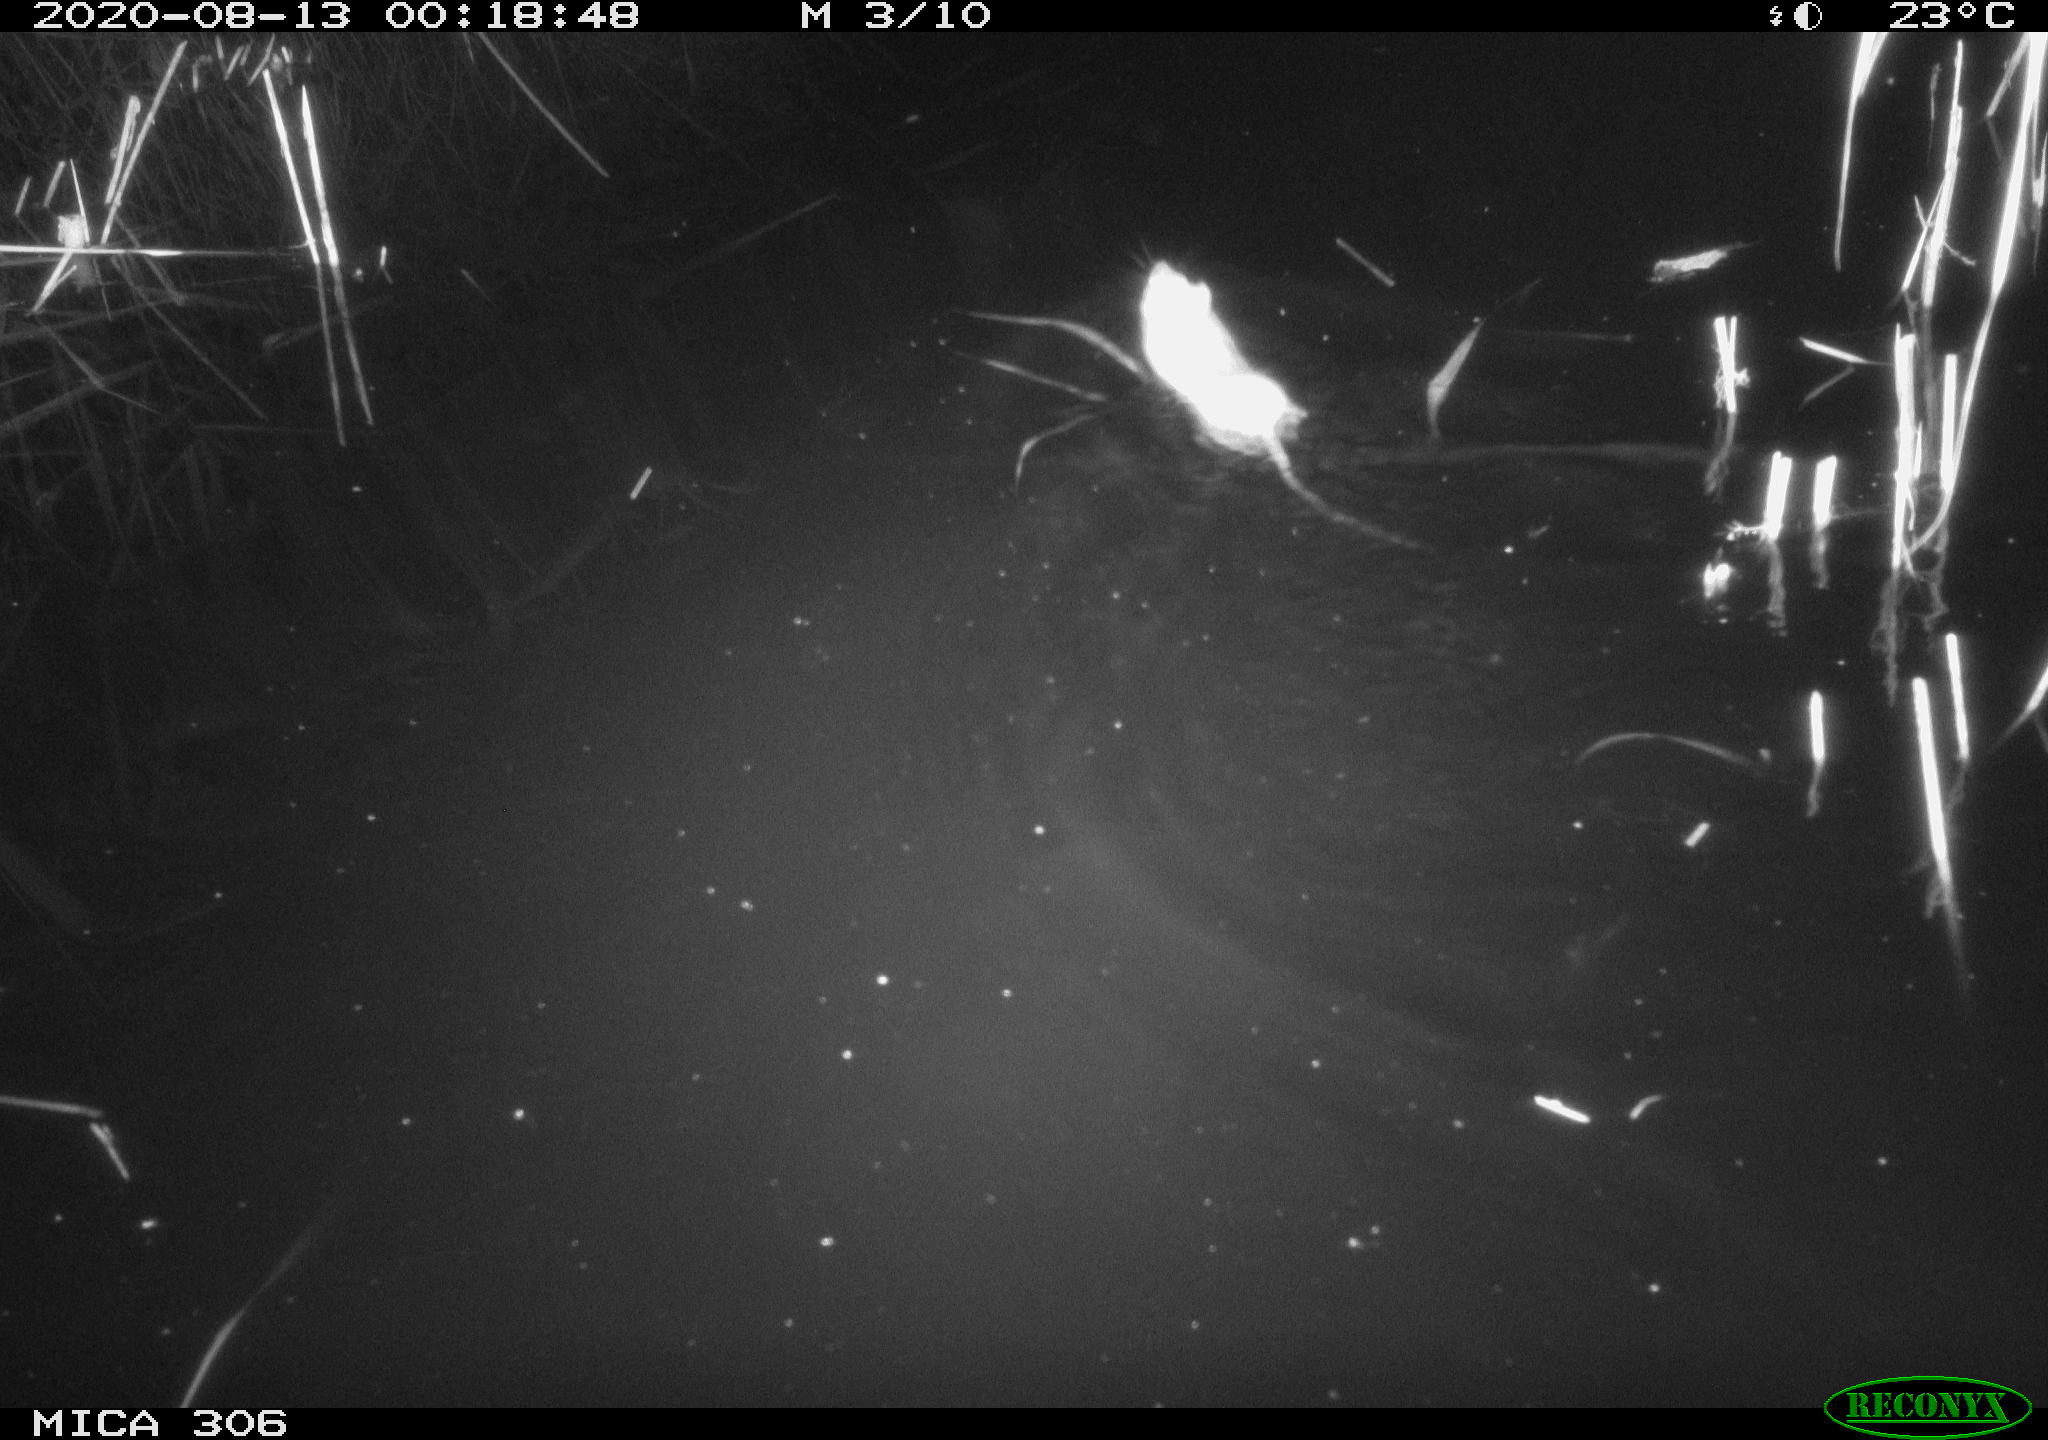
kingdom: Animalia
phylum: Chordata
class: Mammalia
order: Rodentia
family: Cricetidae
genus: Ondatra
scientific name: Ondatra zibethicus
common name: Muskrat
